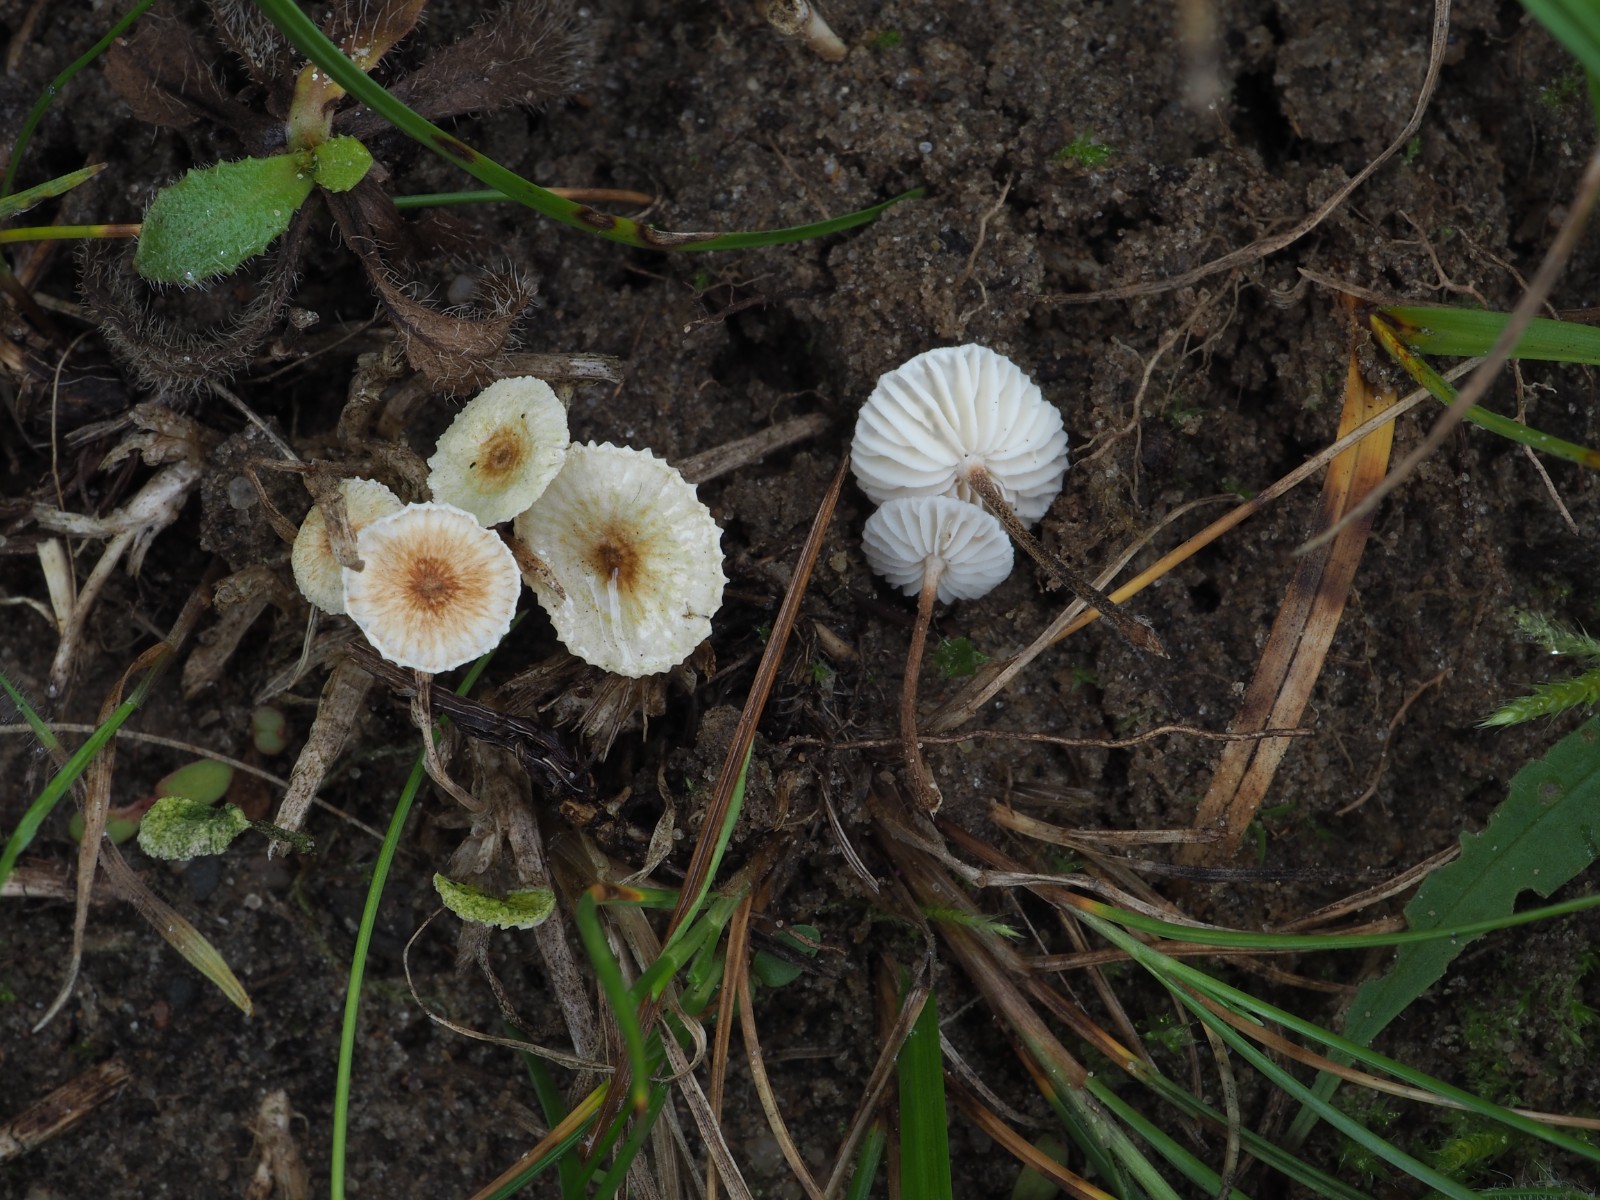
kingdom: Fungi
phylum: Basidiomycota
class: Agaricomycetes
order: Agaricales
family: Marasmiaceae
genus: Crinipellis
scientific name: Crinipellis scabella
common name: børstefod
